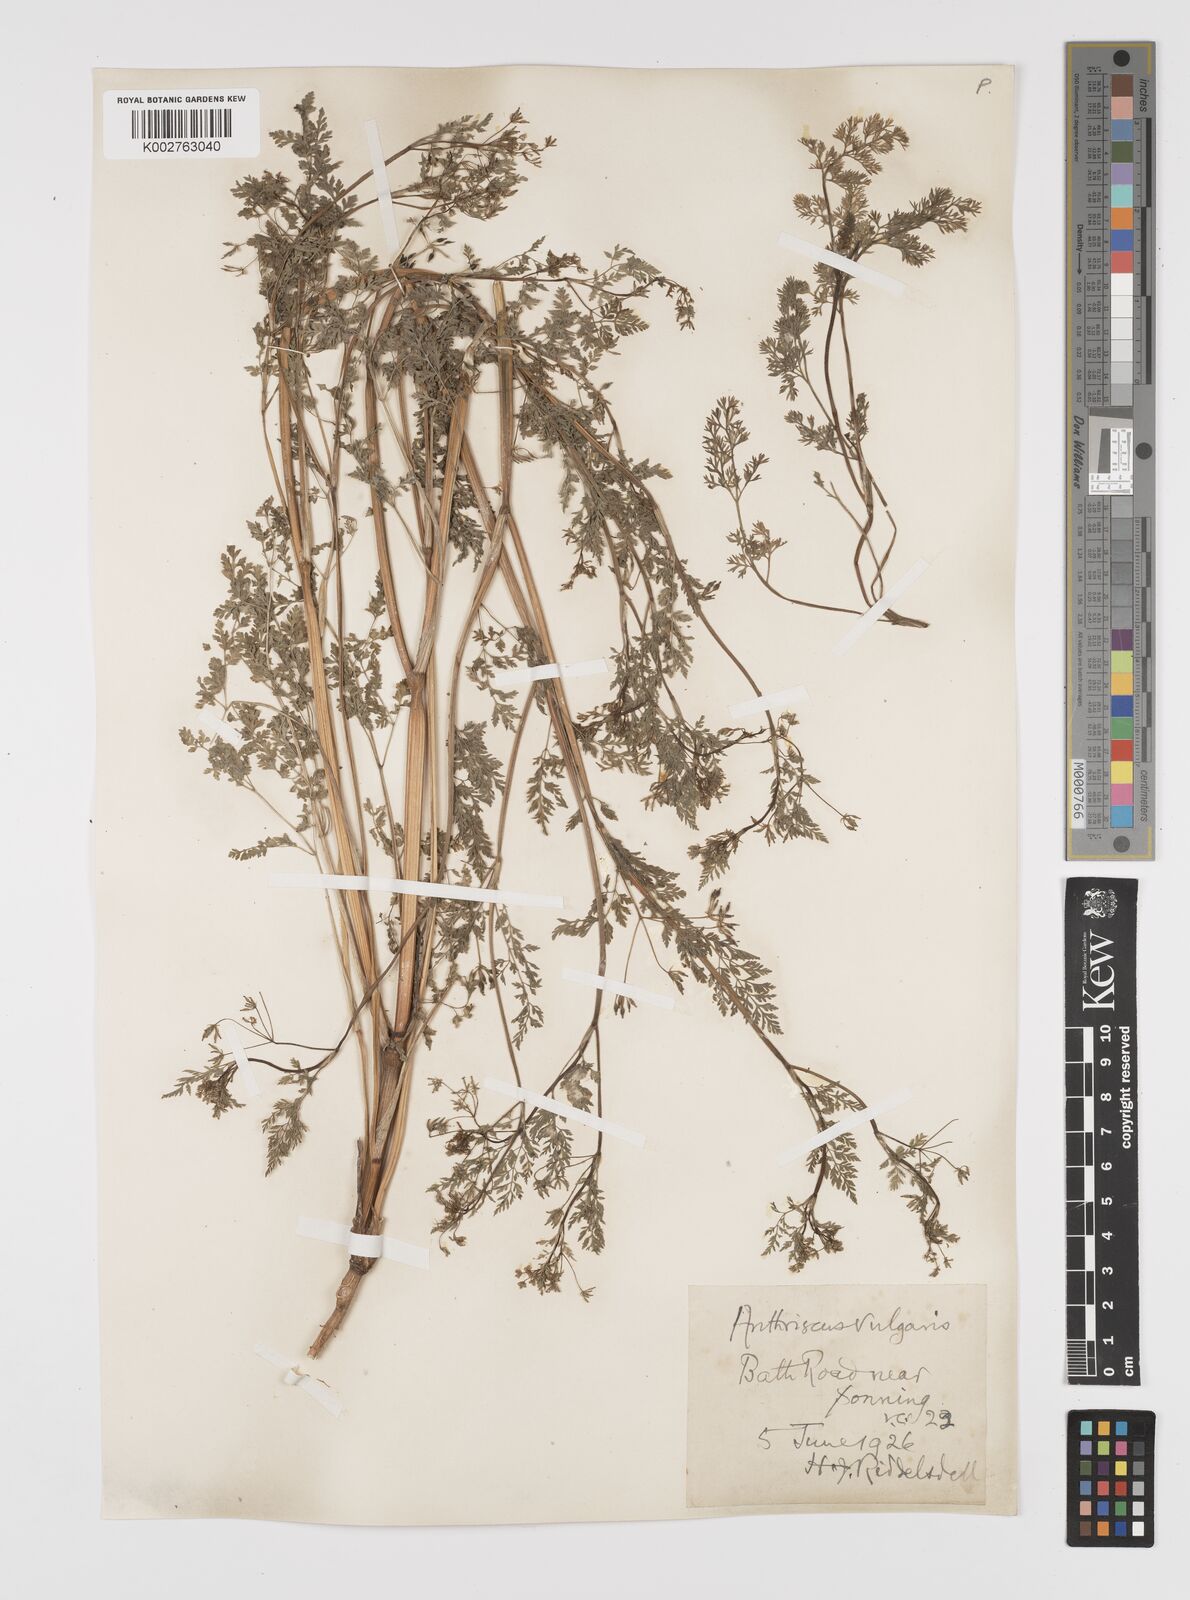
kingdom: Plantae
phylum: Tracheophyta
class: Magnoliopsida
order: Apiales
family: Apiaceae
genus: Anthriscus
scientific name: Anthriscus caucalis
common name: Bur chervil
